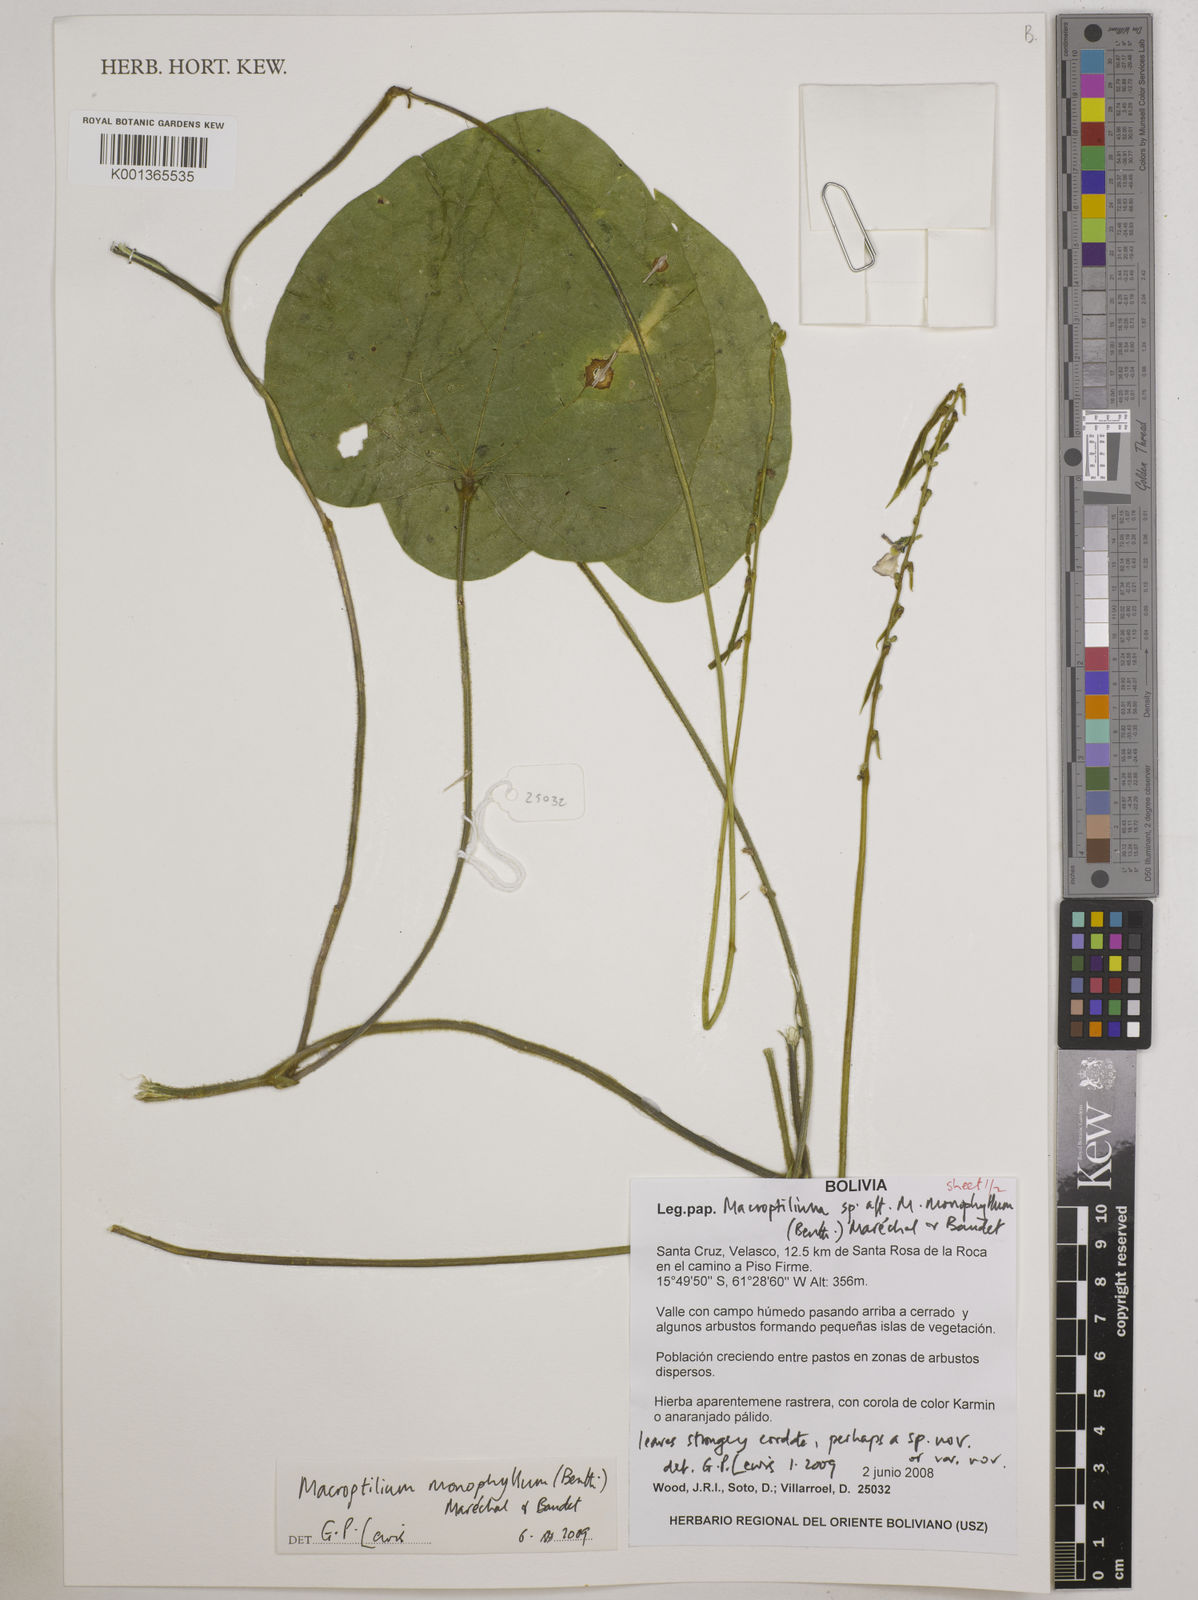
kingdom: Plantae
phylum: Tracheophyta
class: Magnoliopsida
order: Fabales
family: Fabaceae
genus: Macroptilium
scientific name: Macroptilium monophyllum
